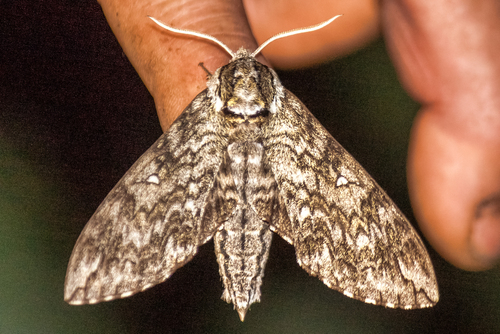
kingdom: Animalia
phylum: Arthropoda
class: Insecta
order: Lepidoptera
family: Sphingidae
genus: Ceratomia
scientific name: Ceratomia undulosa
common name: Waved sphinx
